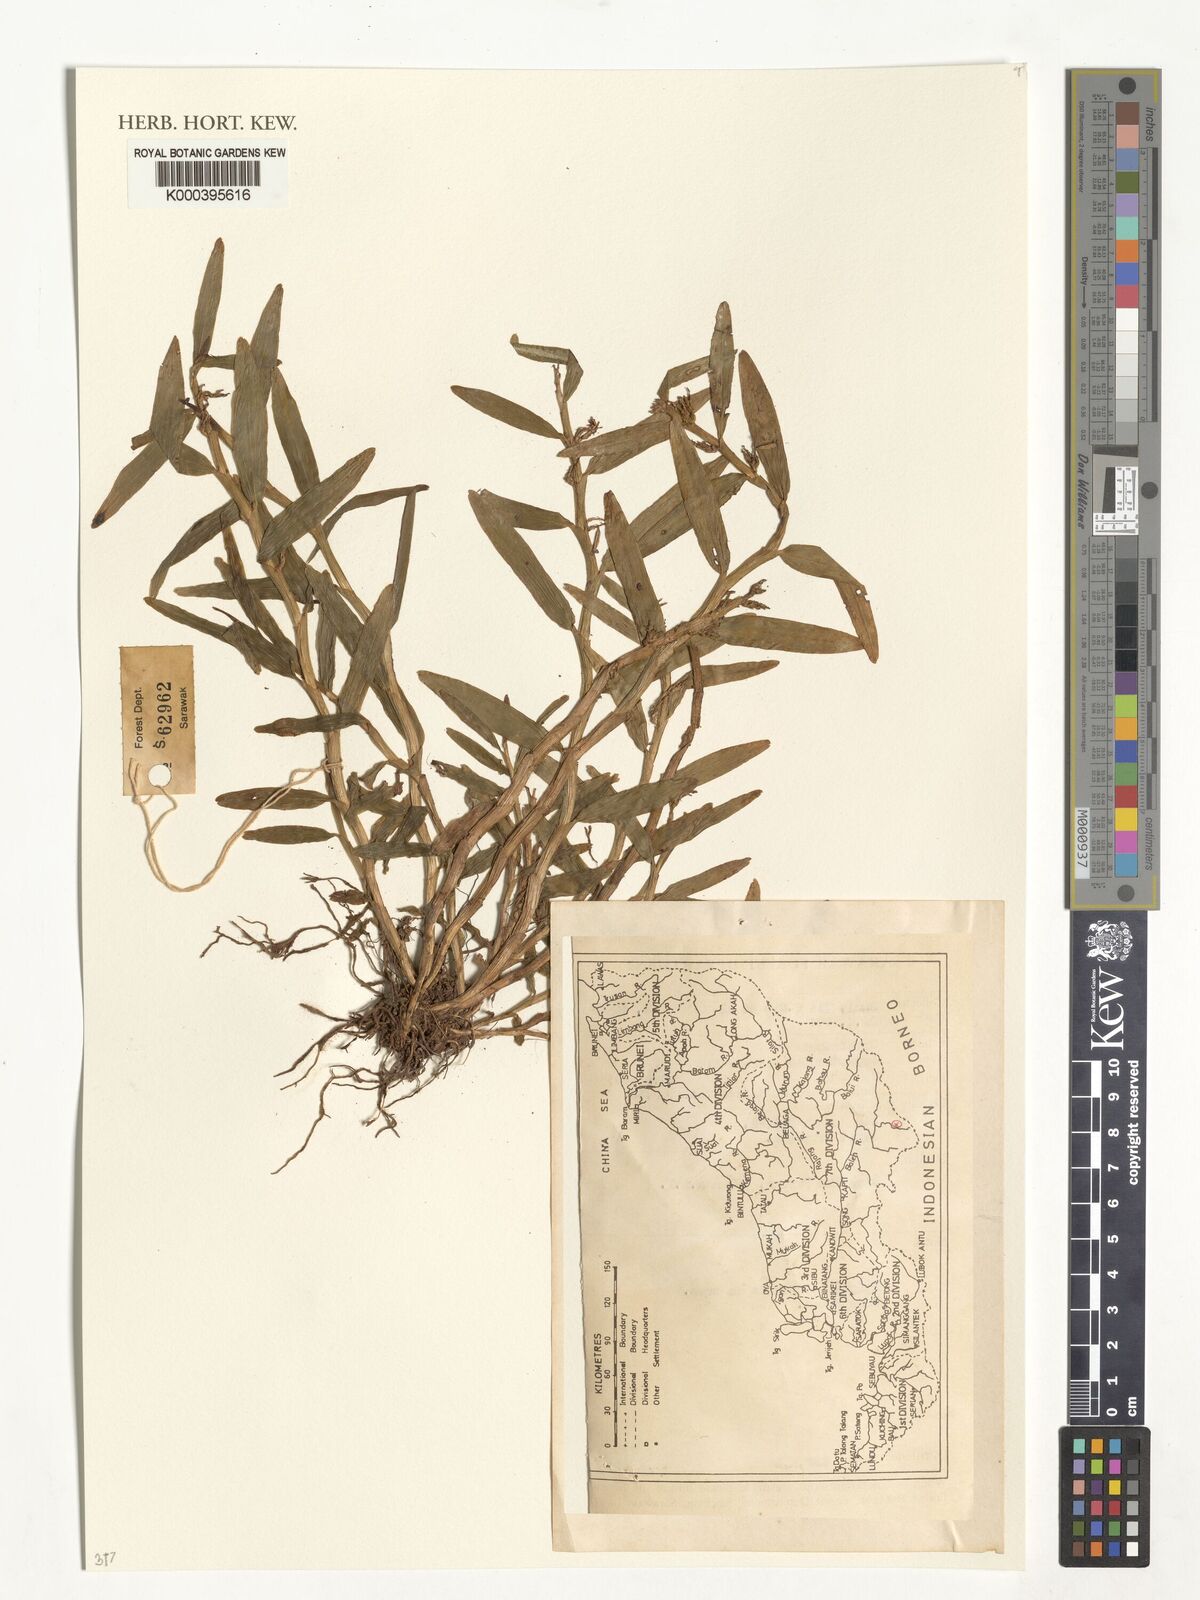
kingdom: Plantae
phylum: Tracheophyta
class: Liliopsida
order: Asparagales
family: Orchidaceae
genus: Appendicula
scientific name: Appendicula
